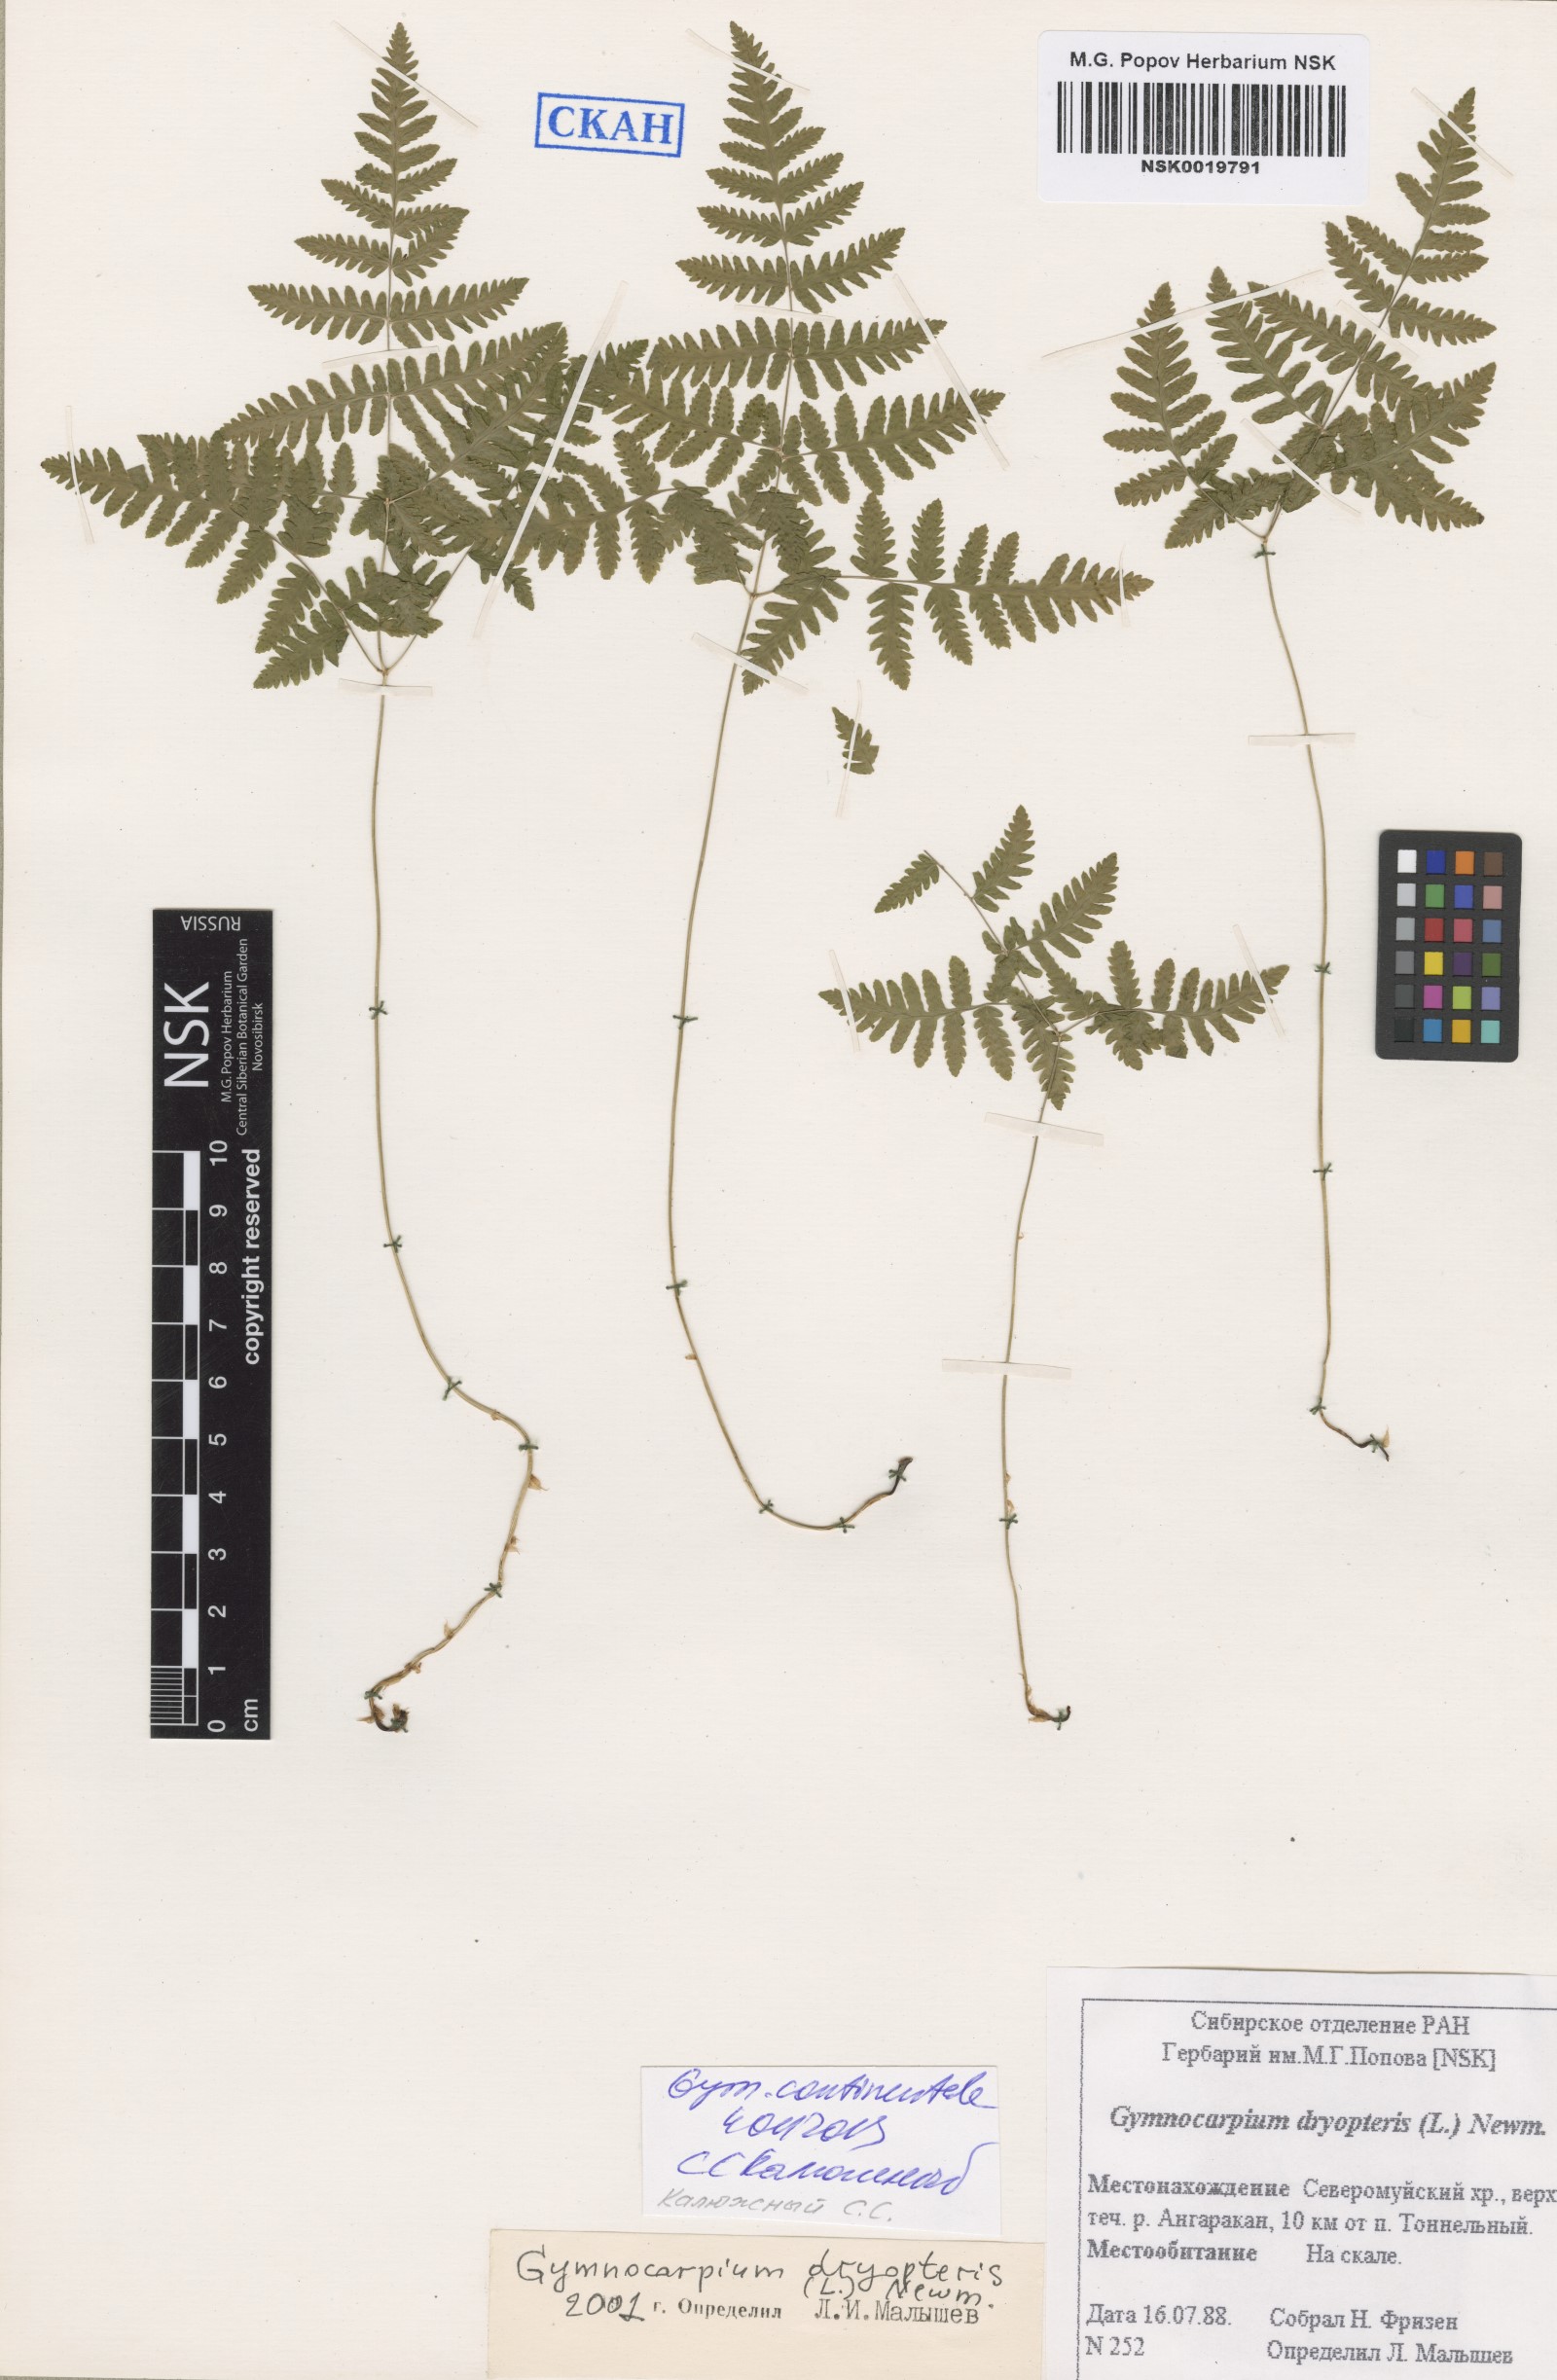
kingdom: Plantae
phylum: Tracheophyta
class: Polypodiopsida
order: Polypodiales
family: Cystopteridaceae
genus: Gymnocarpium
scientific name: Gymnocarpium continentale
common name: Asian oak fern
